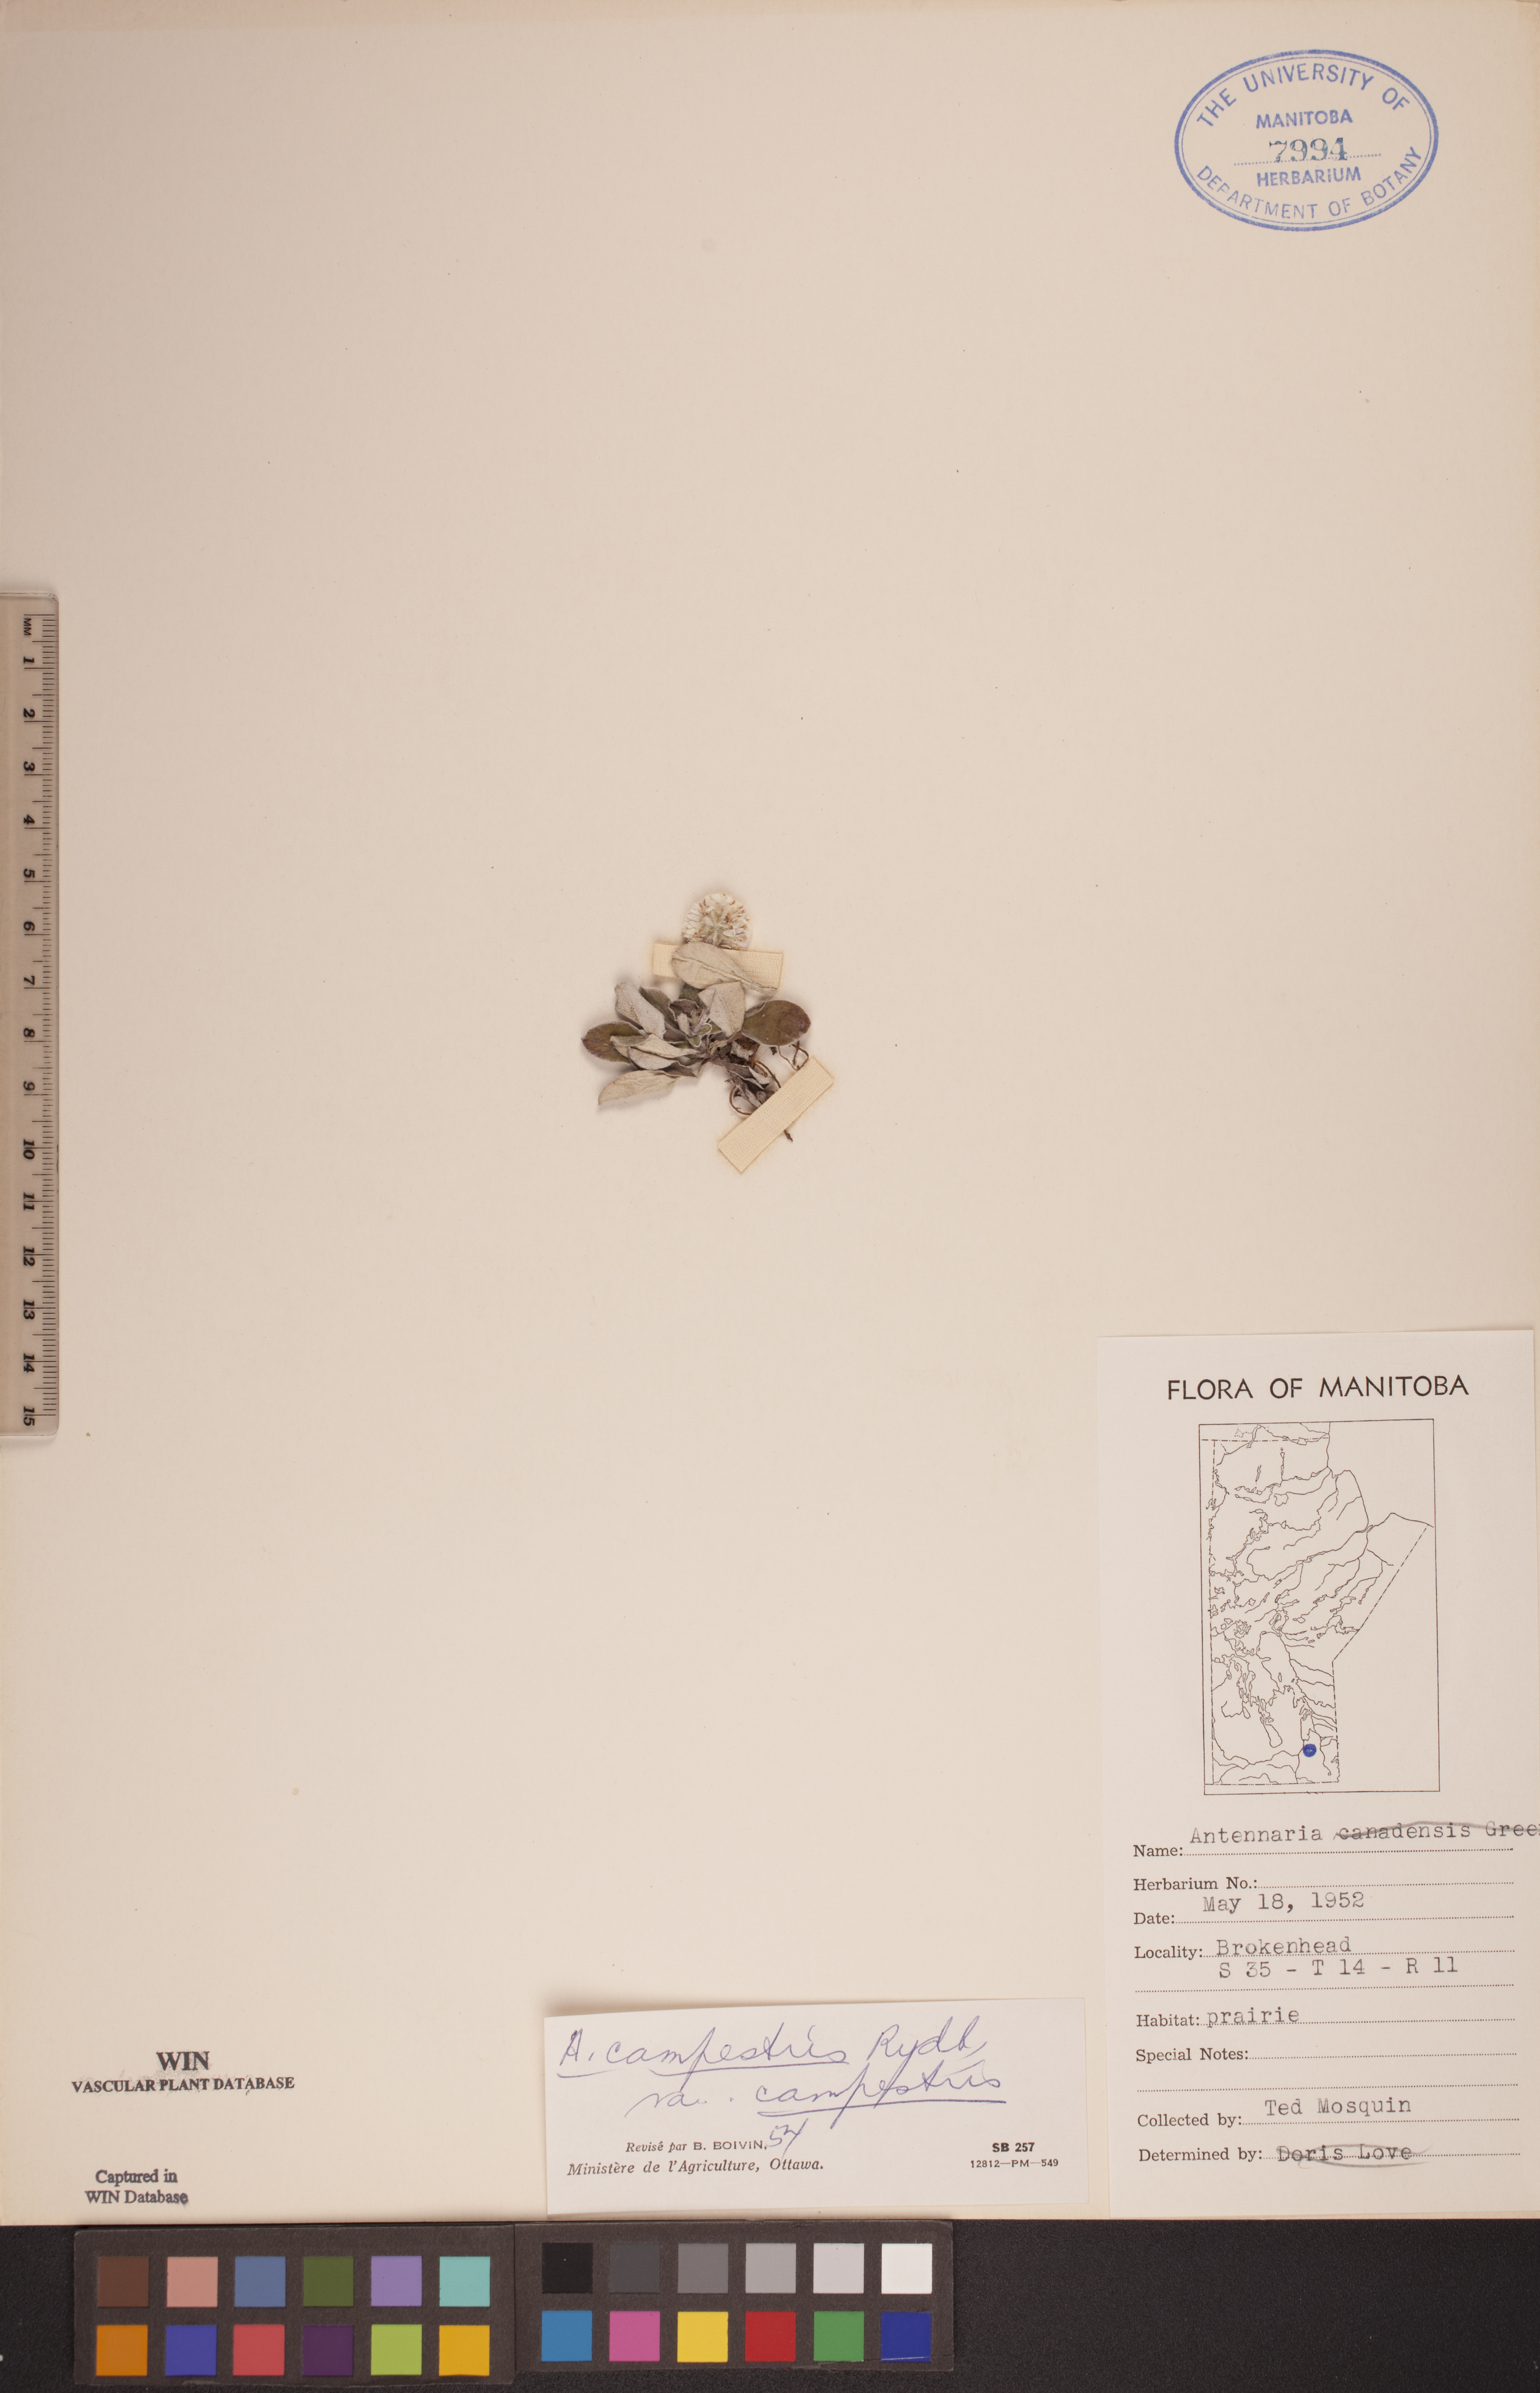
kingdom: Plantae
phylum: Tracheophyta
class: Magnoliopsida
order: Asterales
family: Asteraceae
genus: Antennaria
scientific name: Antennaria neglecta
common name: Field pussytoes
